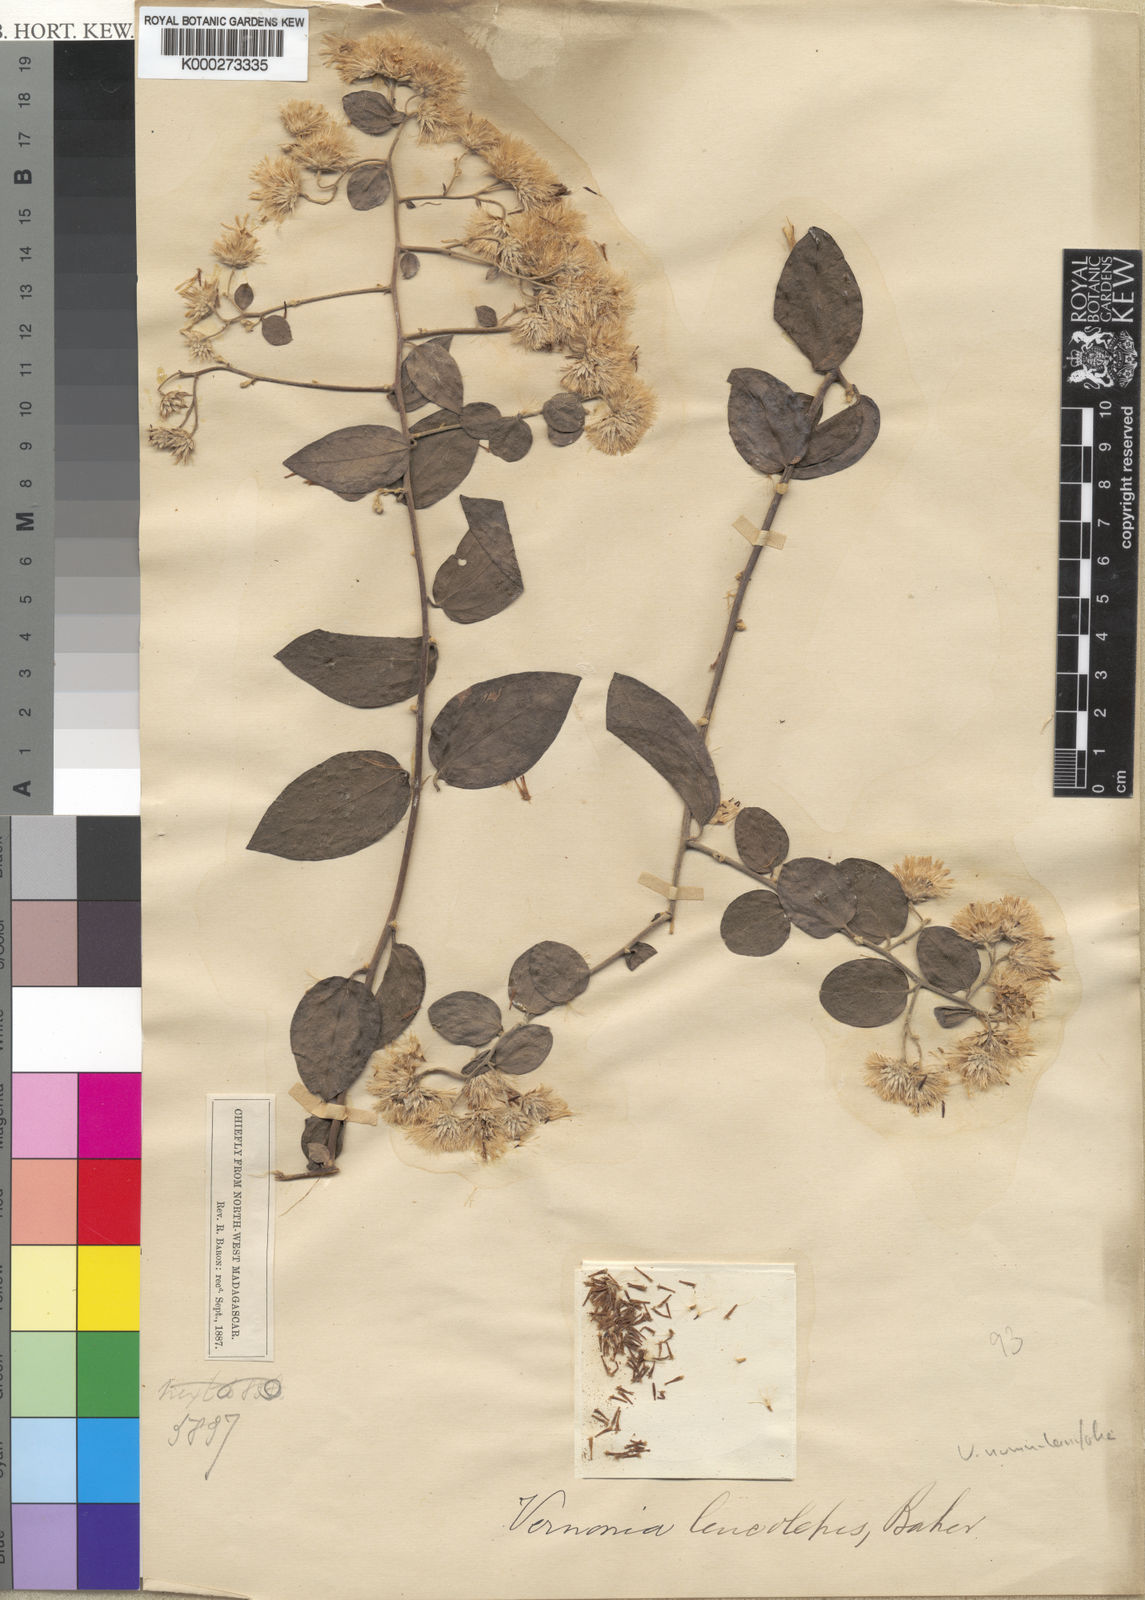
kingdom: Plantae
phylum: Tracheophyta
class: Magnoliopsida
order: Asterales
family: Asteraceae
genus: Distephanus
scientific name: Distephanus
